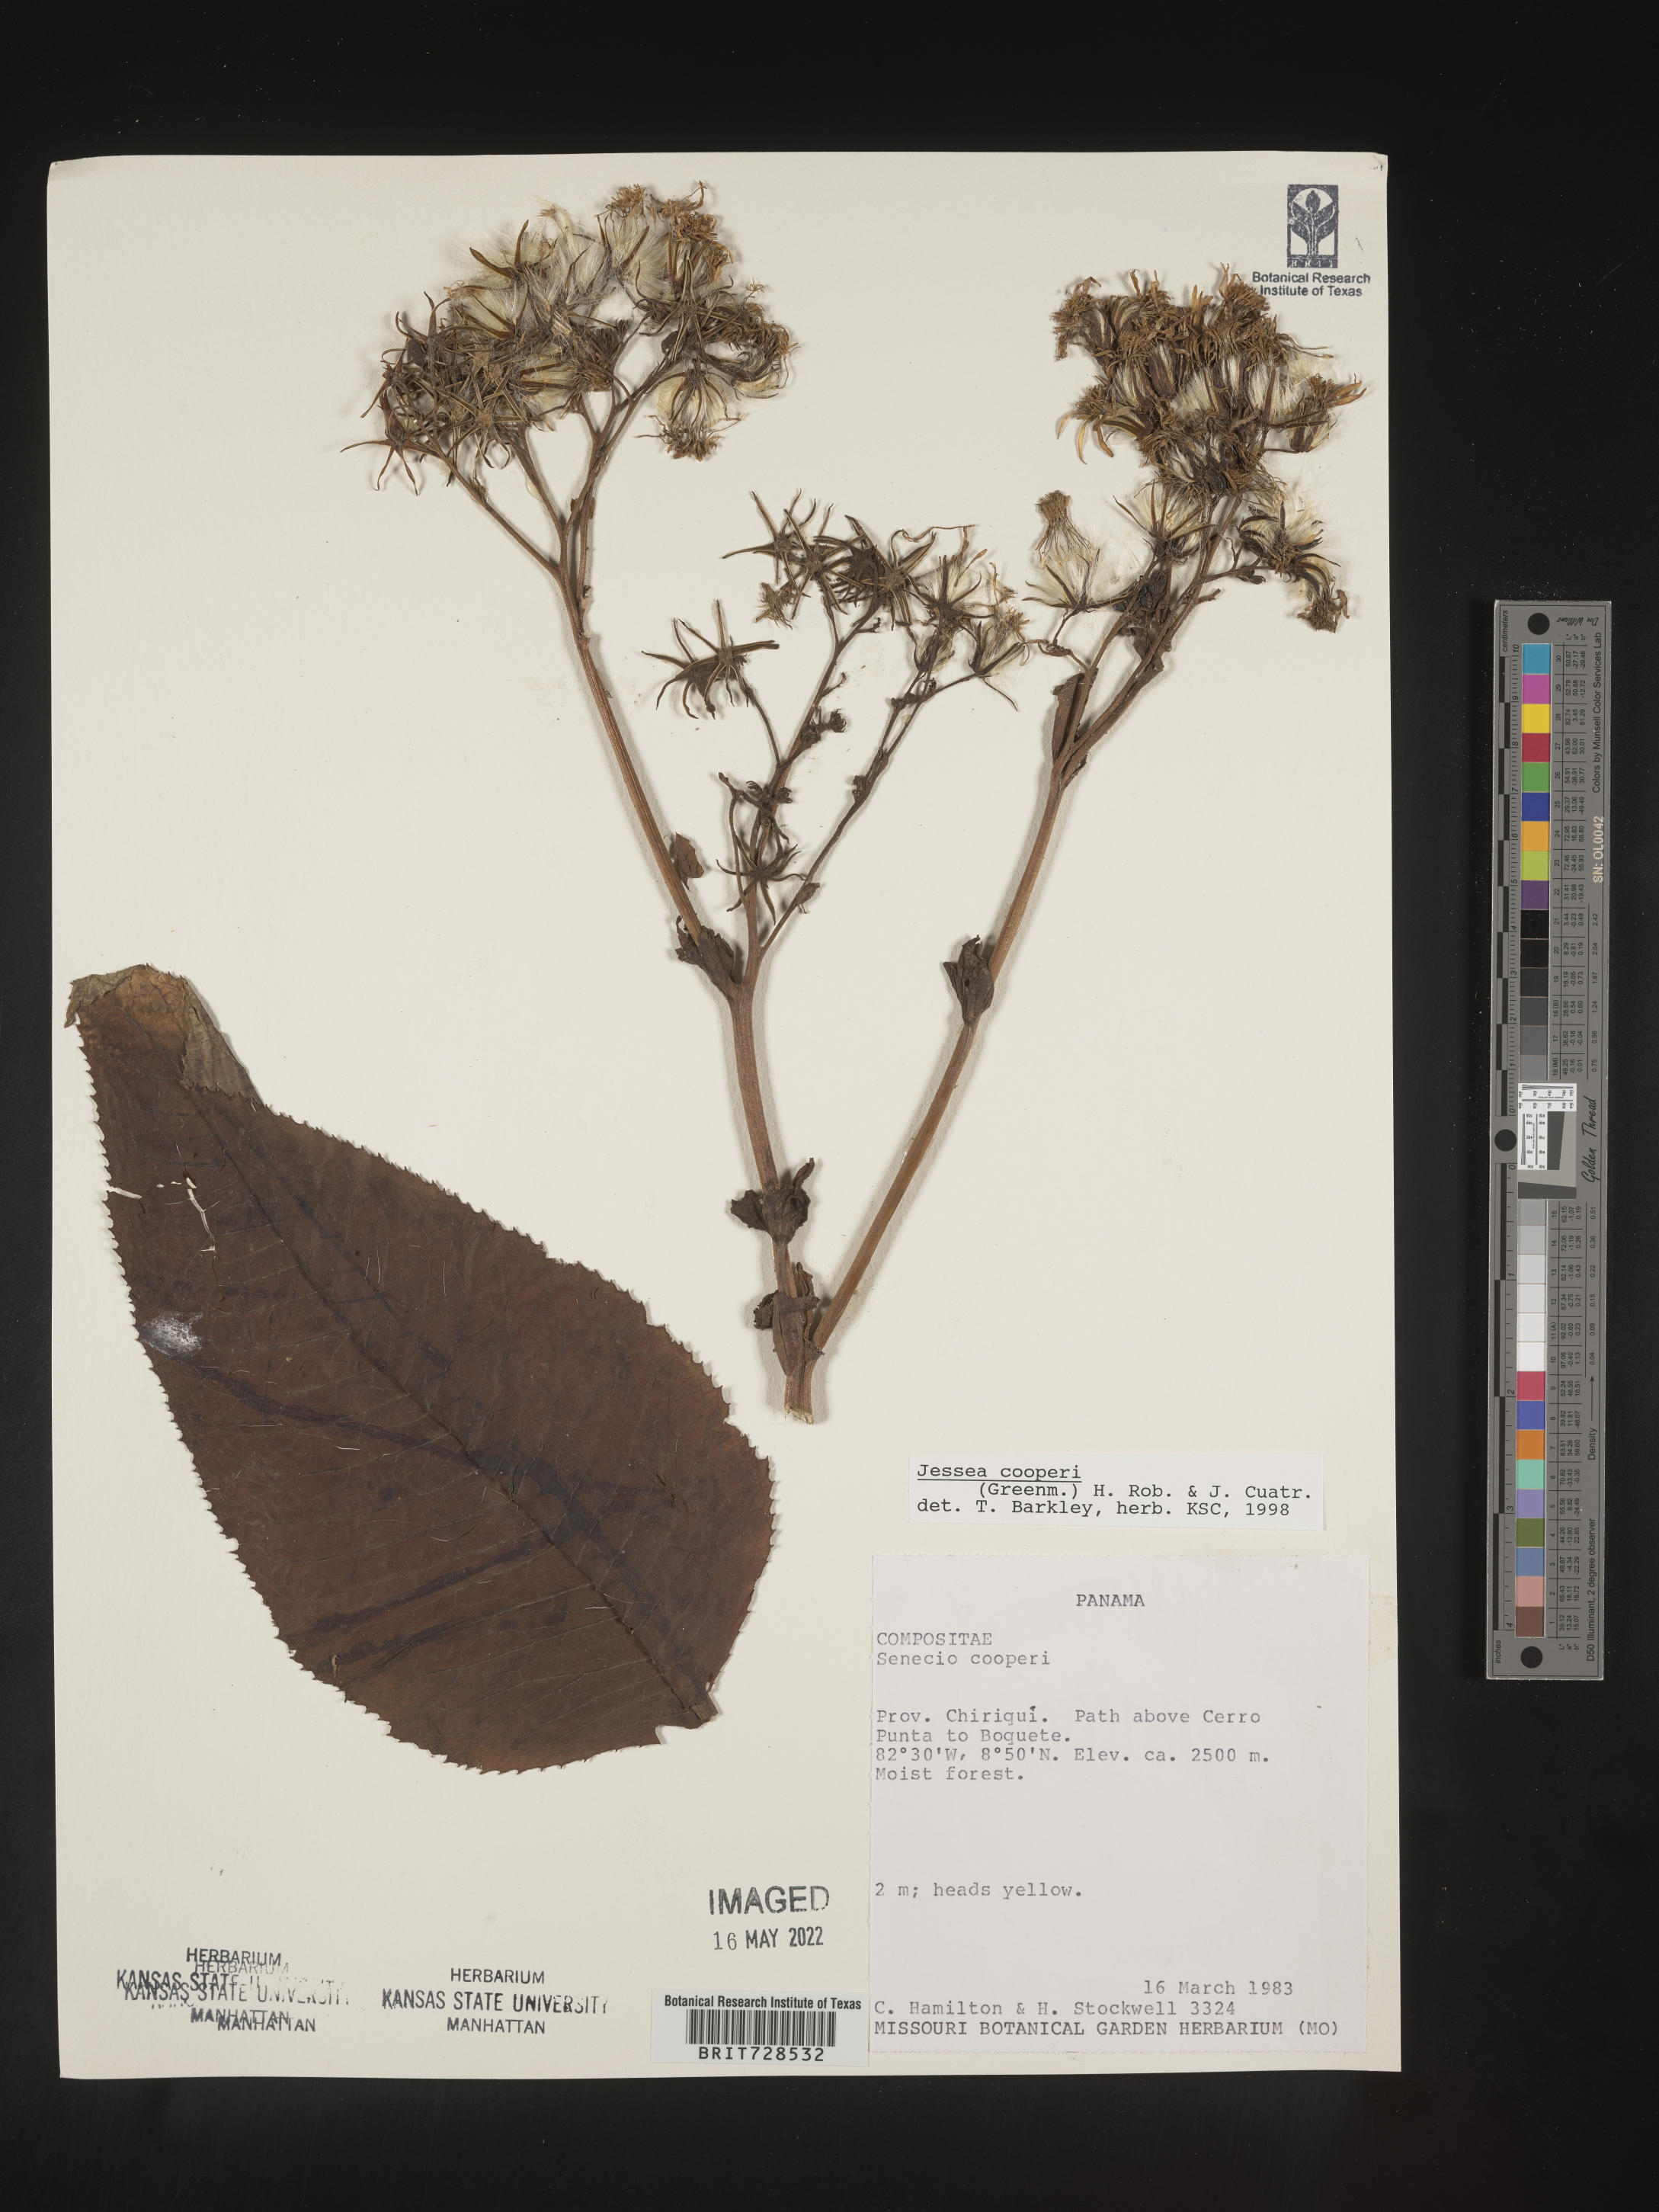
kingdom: Plantae
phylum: Tracheophyta
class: Magnoliopsida
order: Asterales
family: Asteraceae
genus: Jessea
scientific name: Jessea
